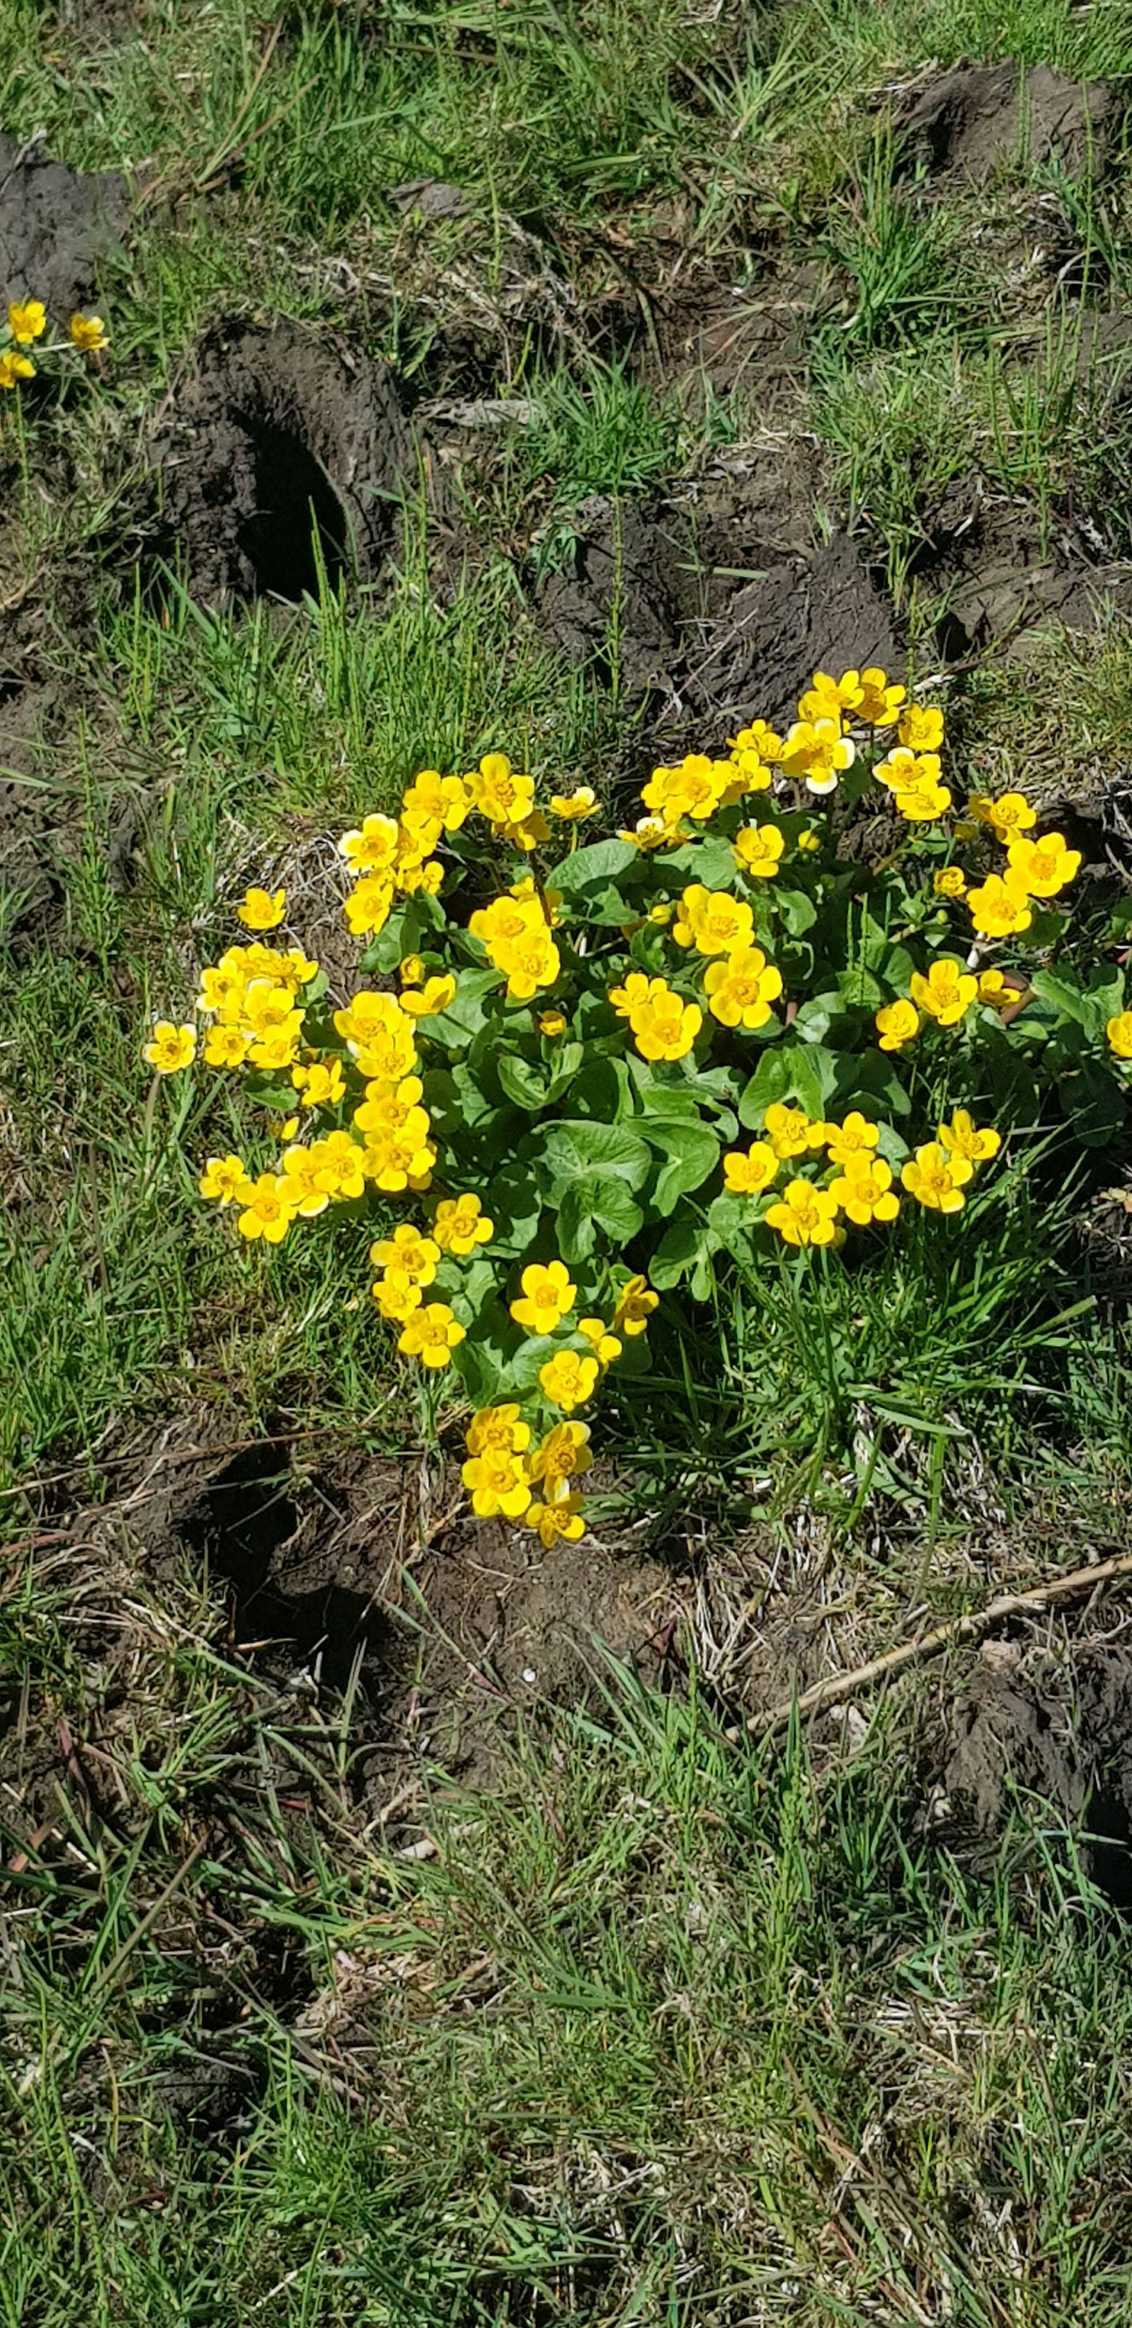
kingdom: Plantae
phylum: Tracheophyta
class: Magnoliopsida
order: Ranunculales
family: Ranunculaceae
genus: Caltha
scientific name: Caltha palustris
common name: Eng-kabbeleje
